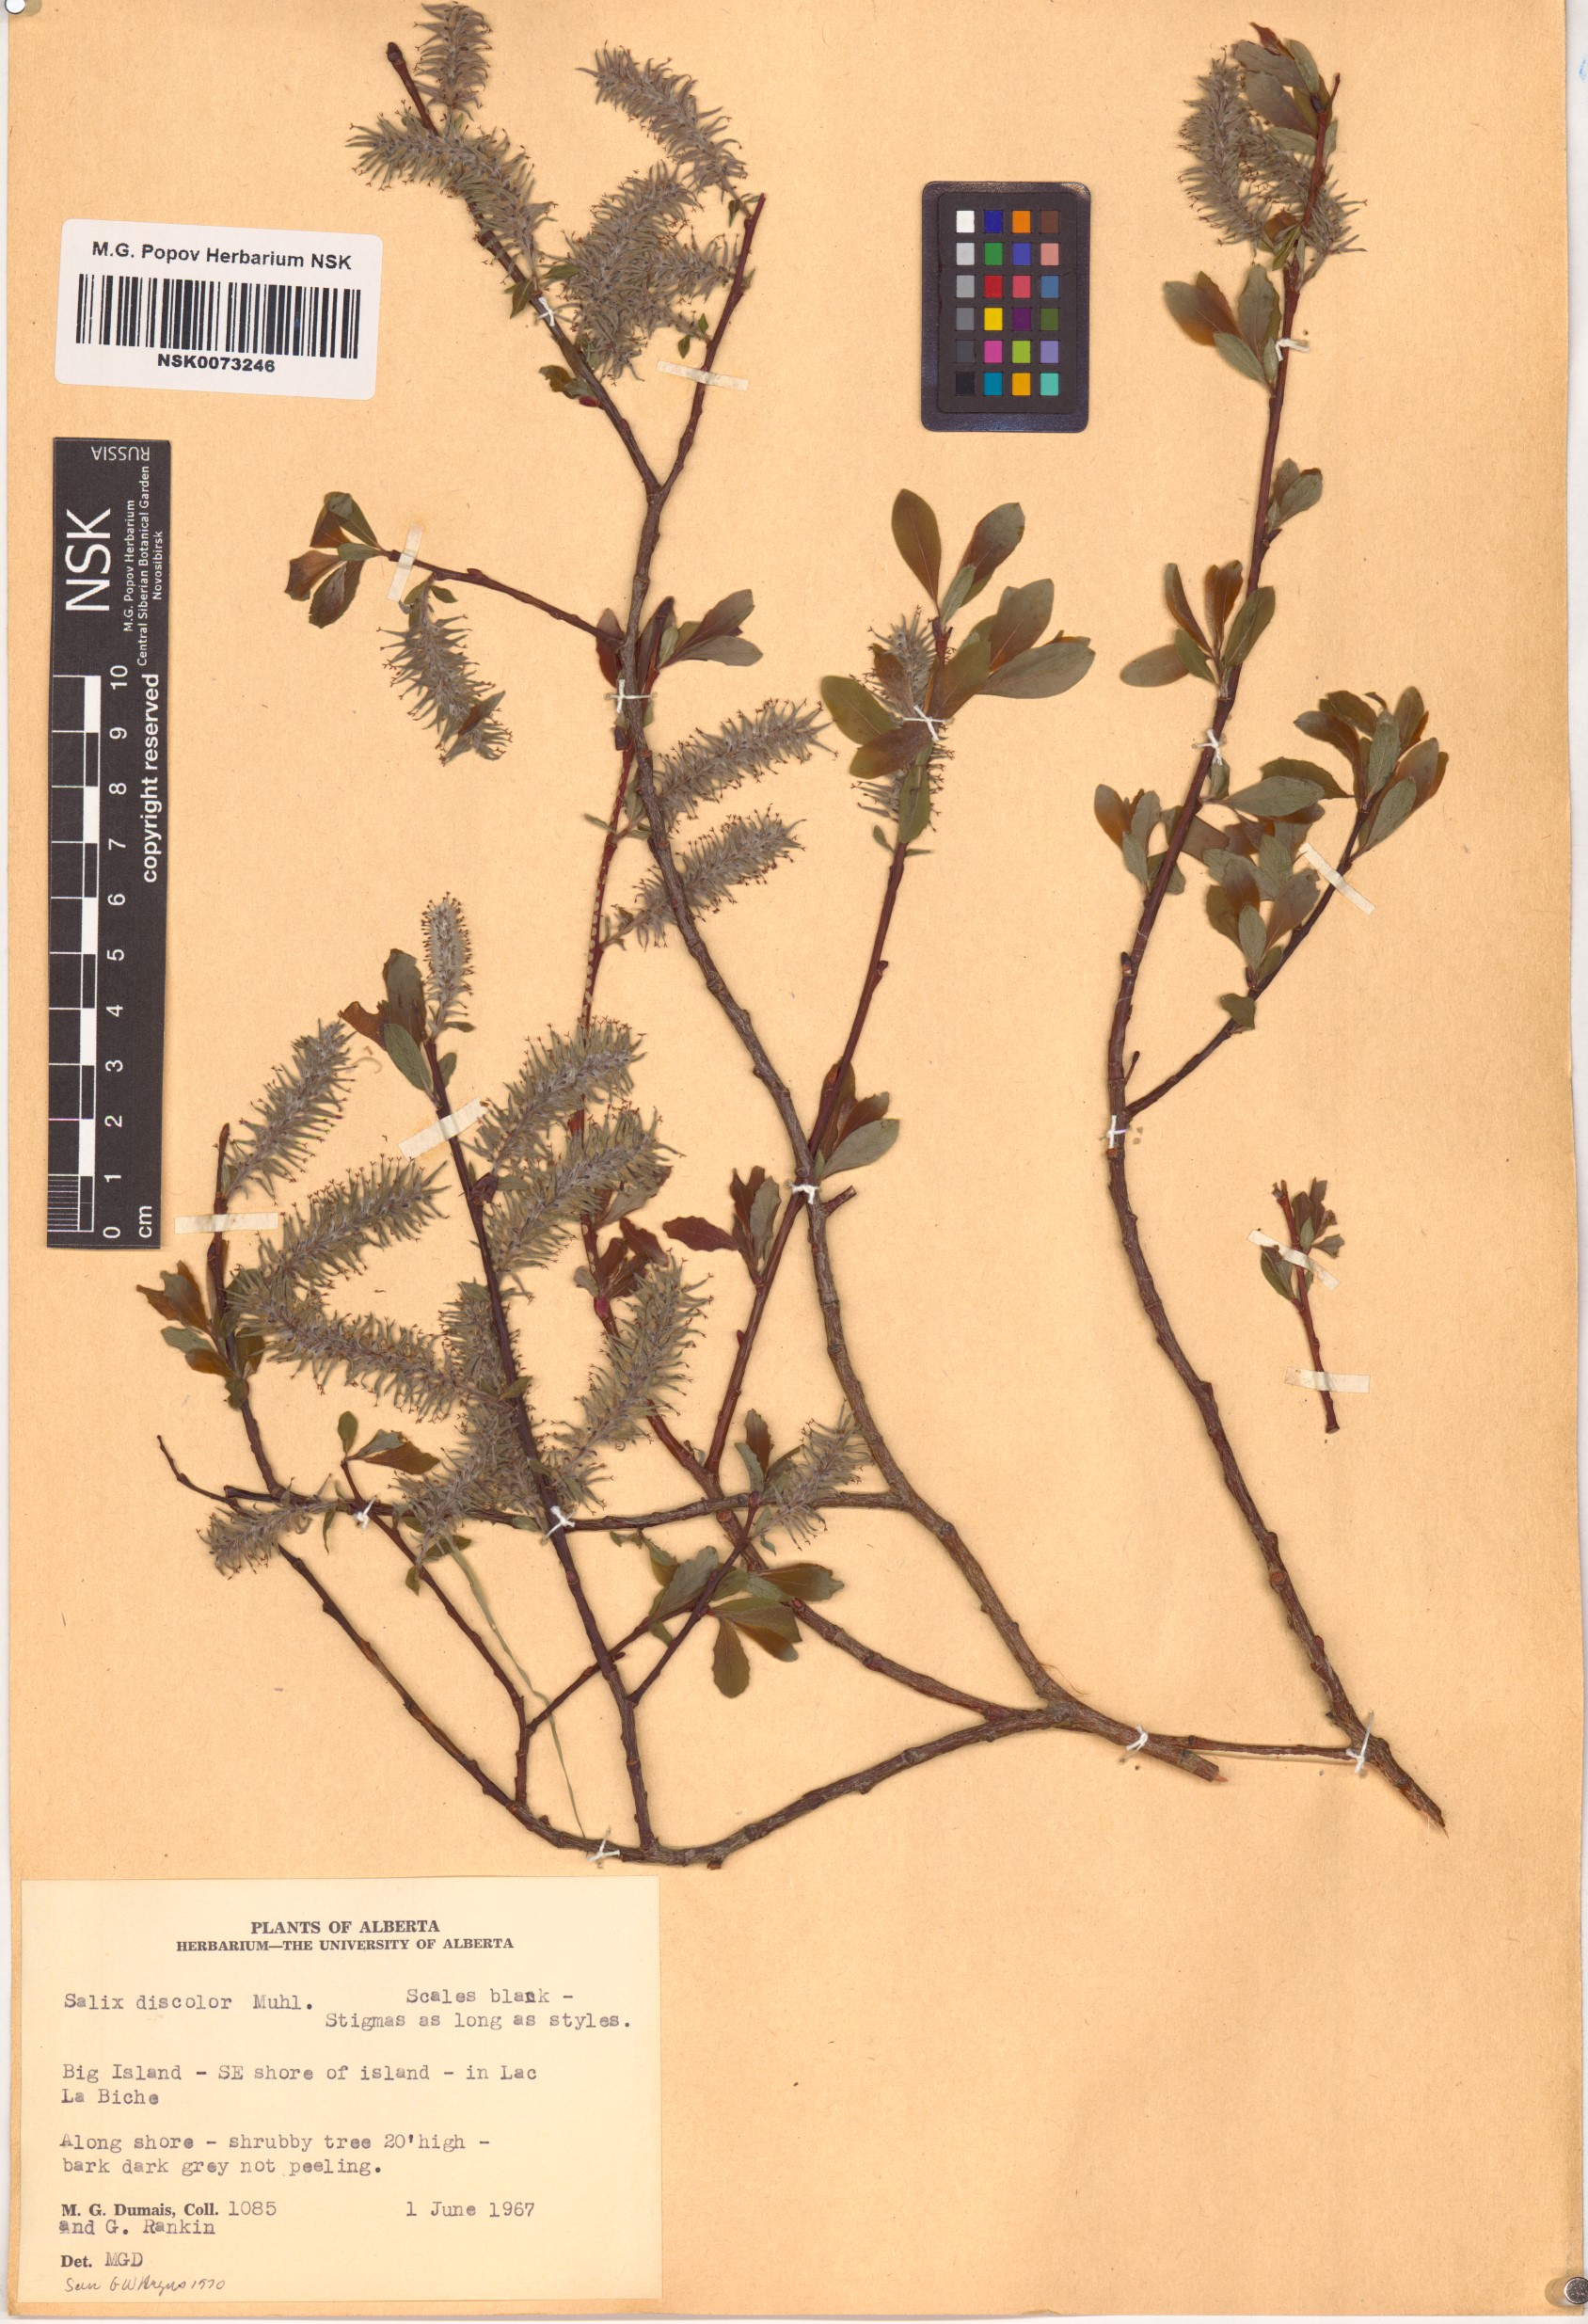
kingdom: Plantae
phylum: Tracheophyta
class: Magnoliopsida
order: Malpighiales
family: Salicaceae
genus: Salix
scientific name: Salix discolor
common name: Glaucous willow
